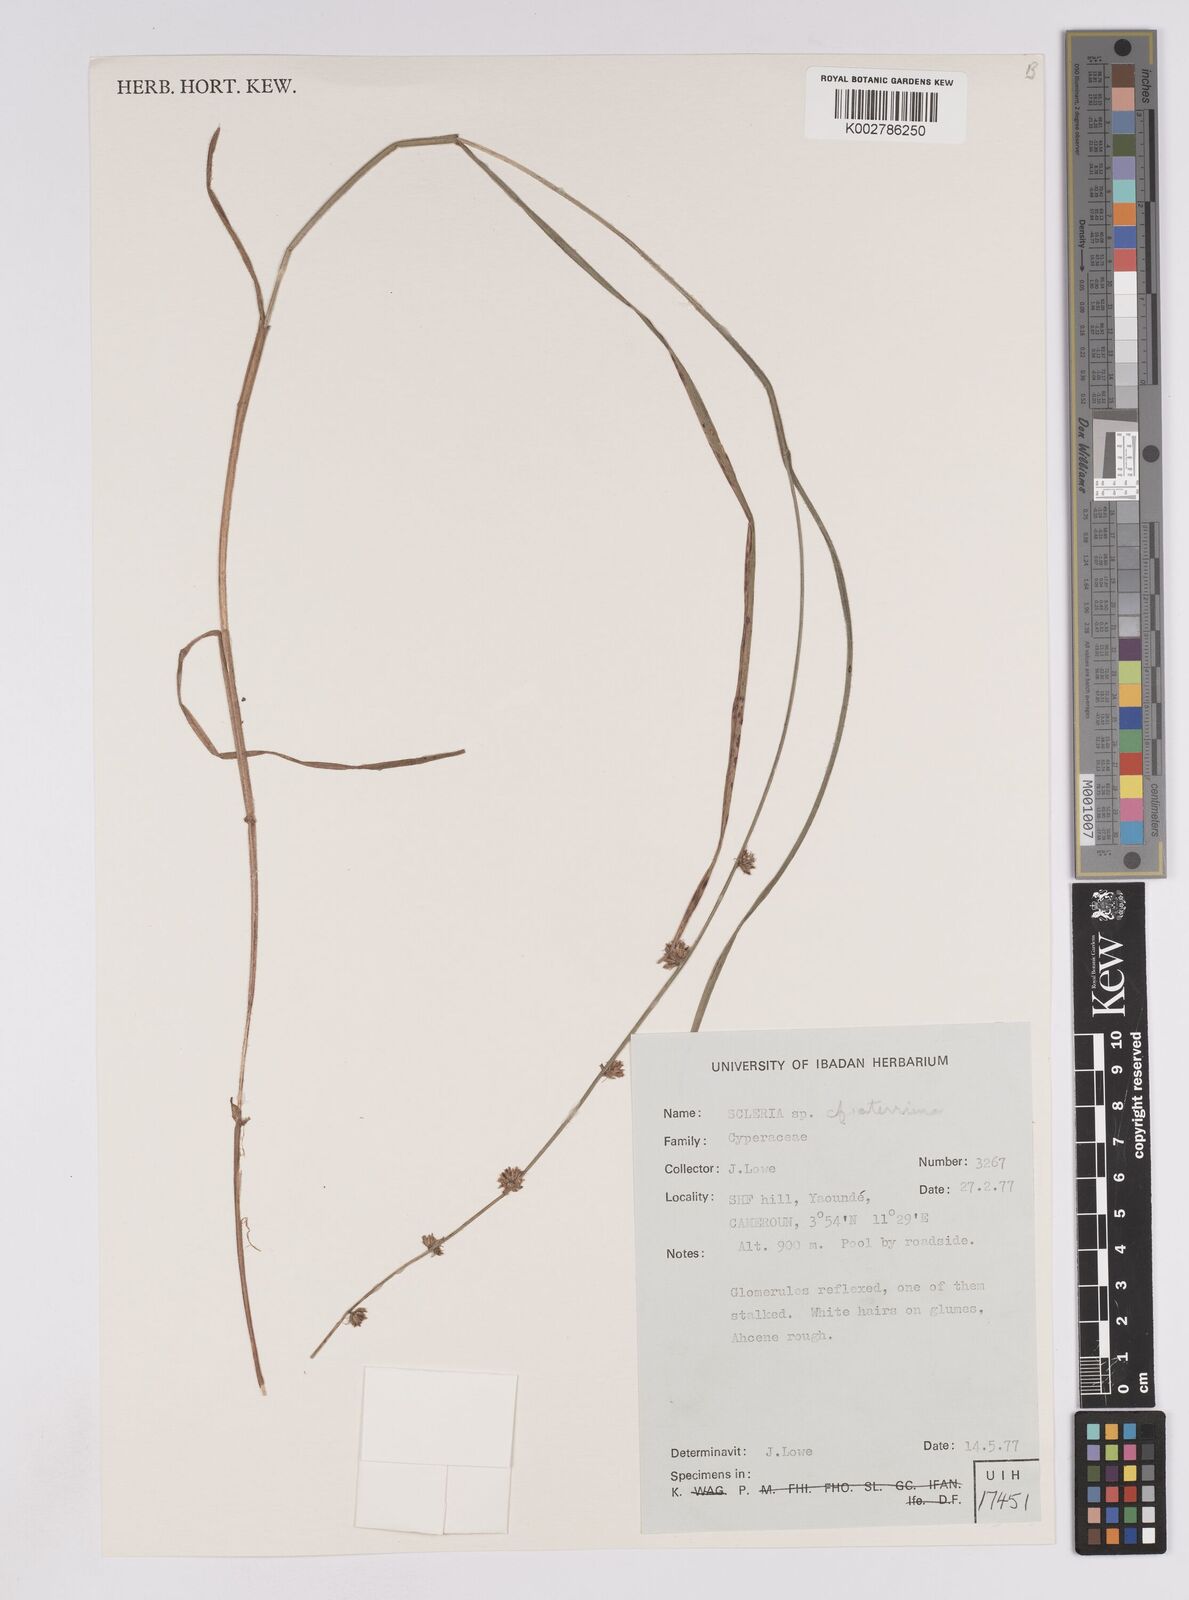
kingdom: Plantae
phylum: Tracheophyta
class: Liliopsida
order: Poales
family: Cyperaceae
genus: Scleria
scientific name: Scleria catophylla
